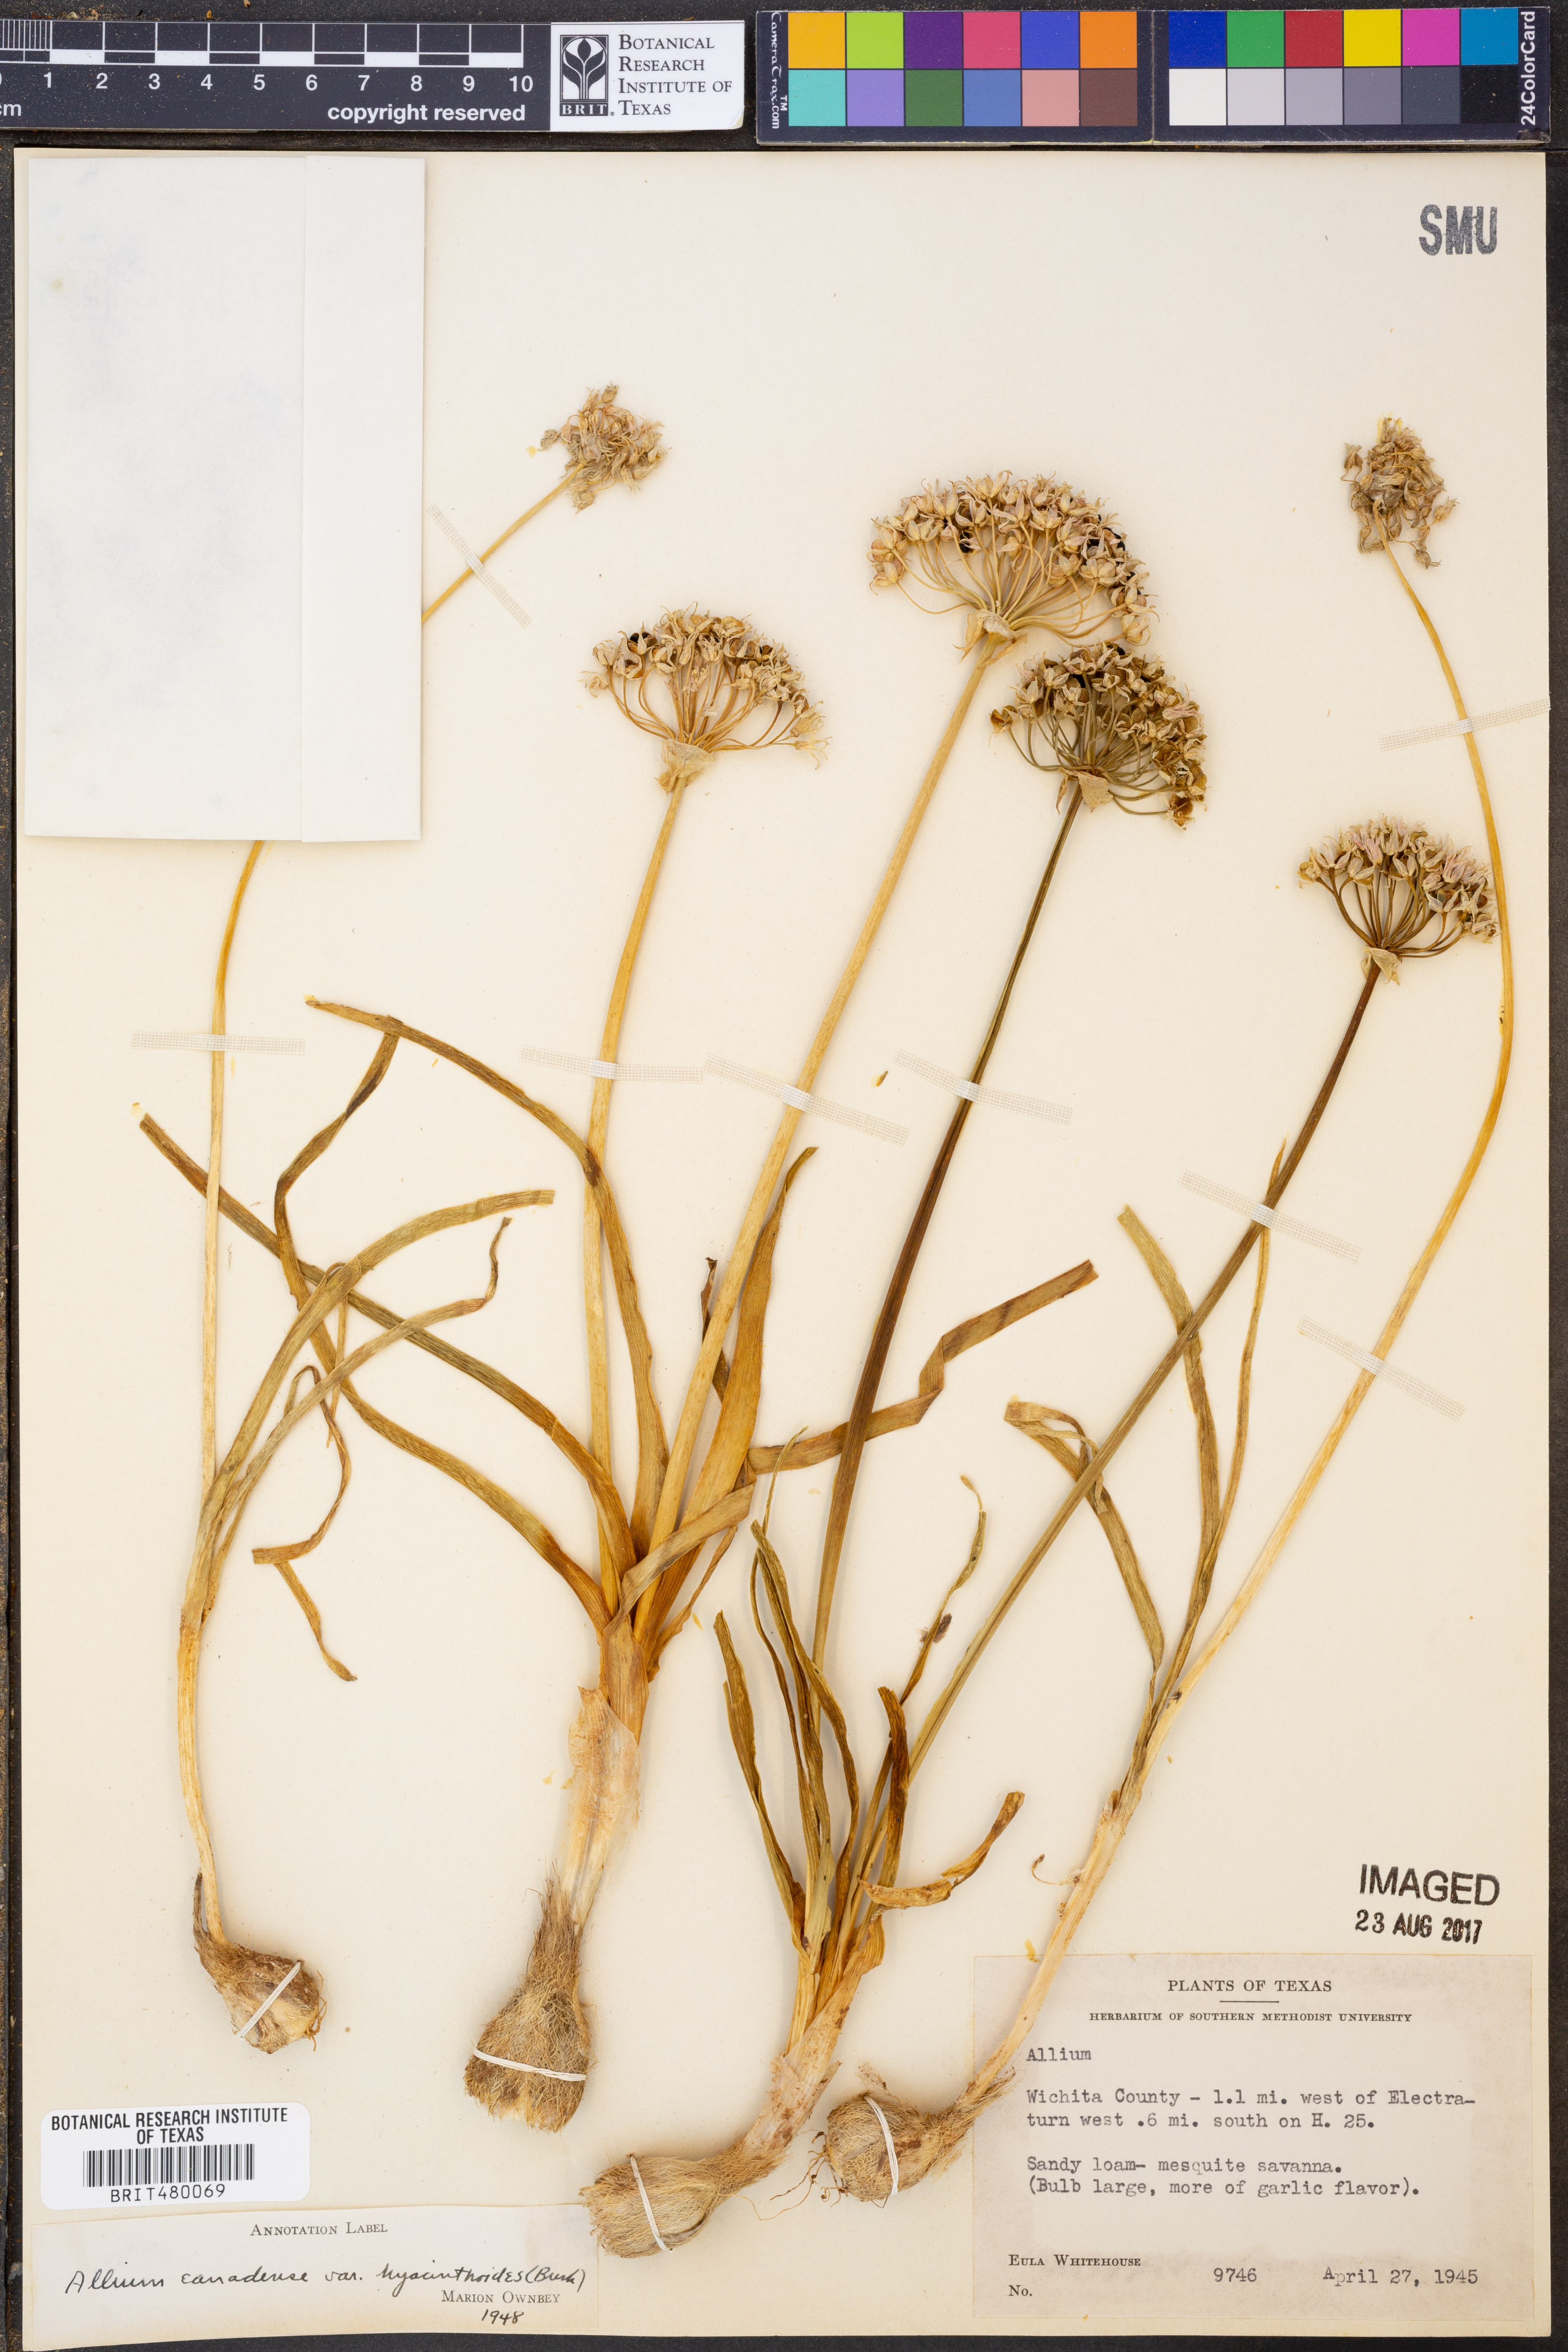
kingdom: Plantae
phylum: Tracheophyta
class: Liliopsida
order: Asparagales
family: Amaryllidaceae
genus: Allium
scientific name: Allium
